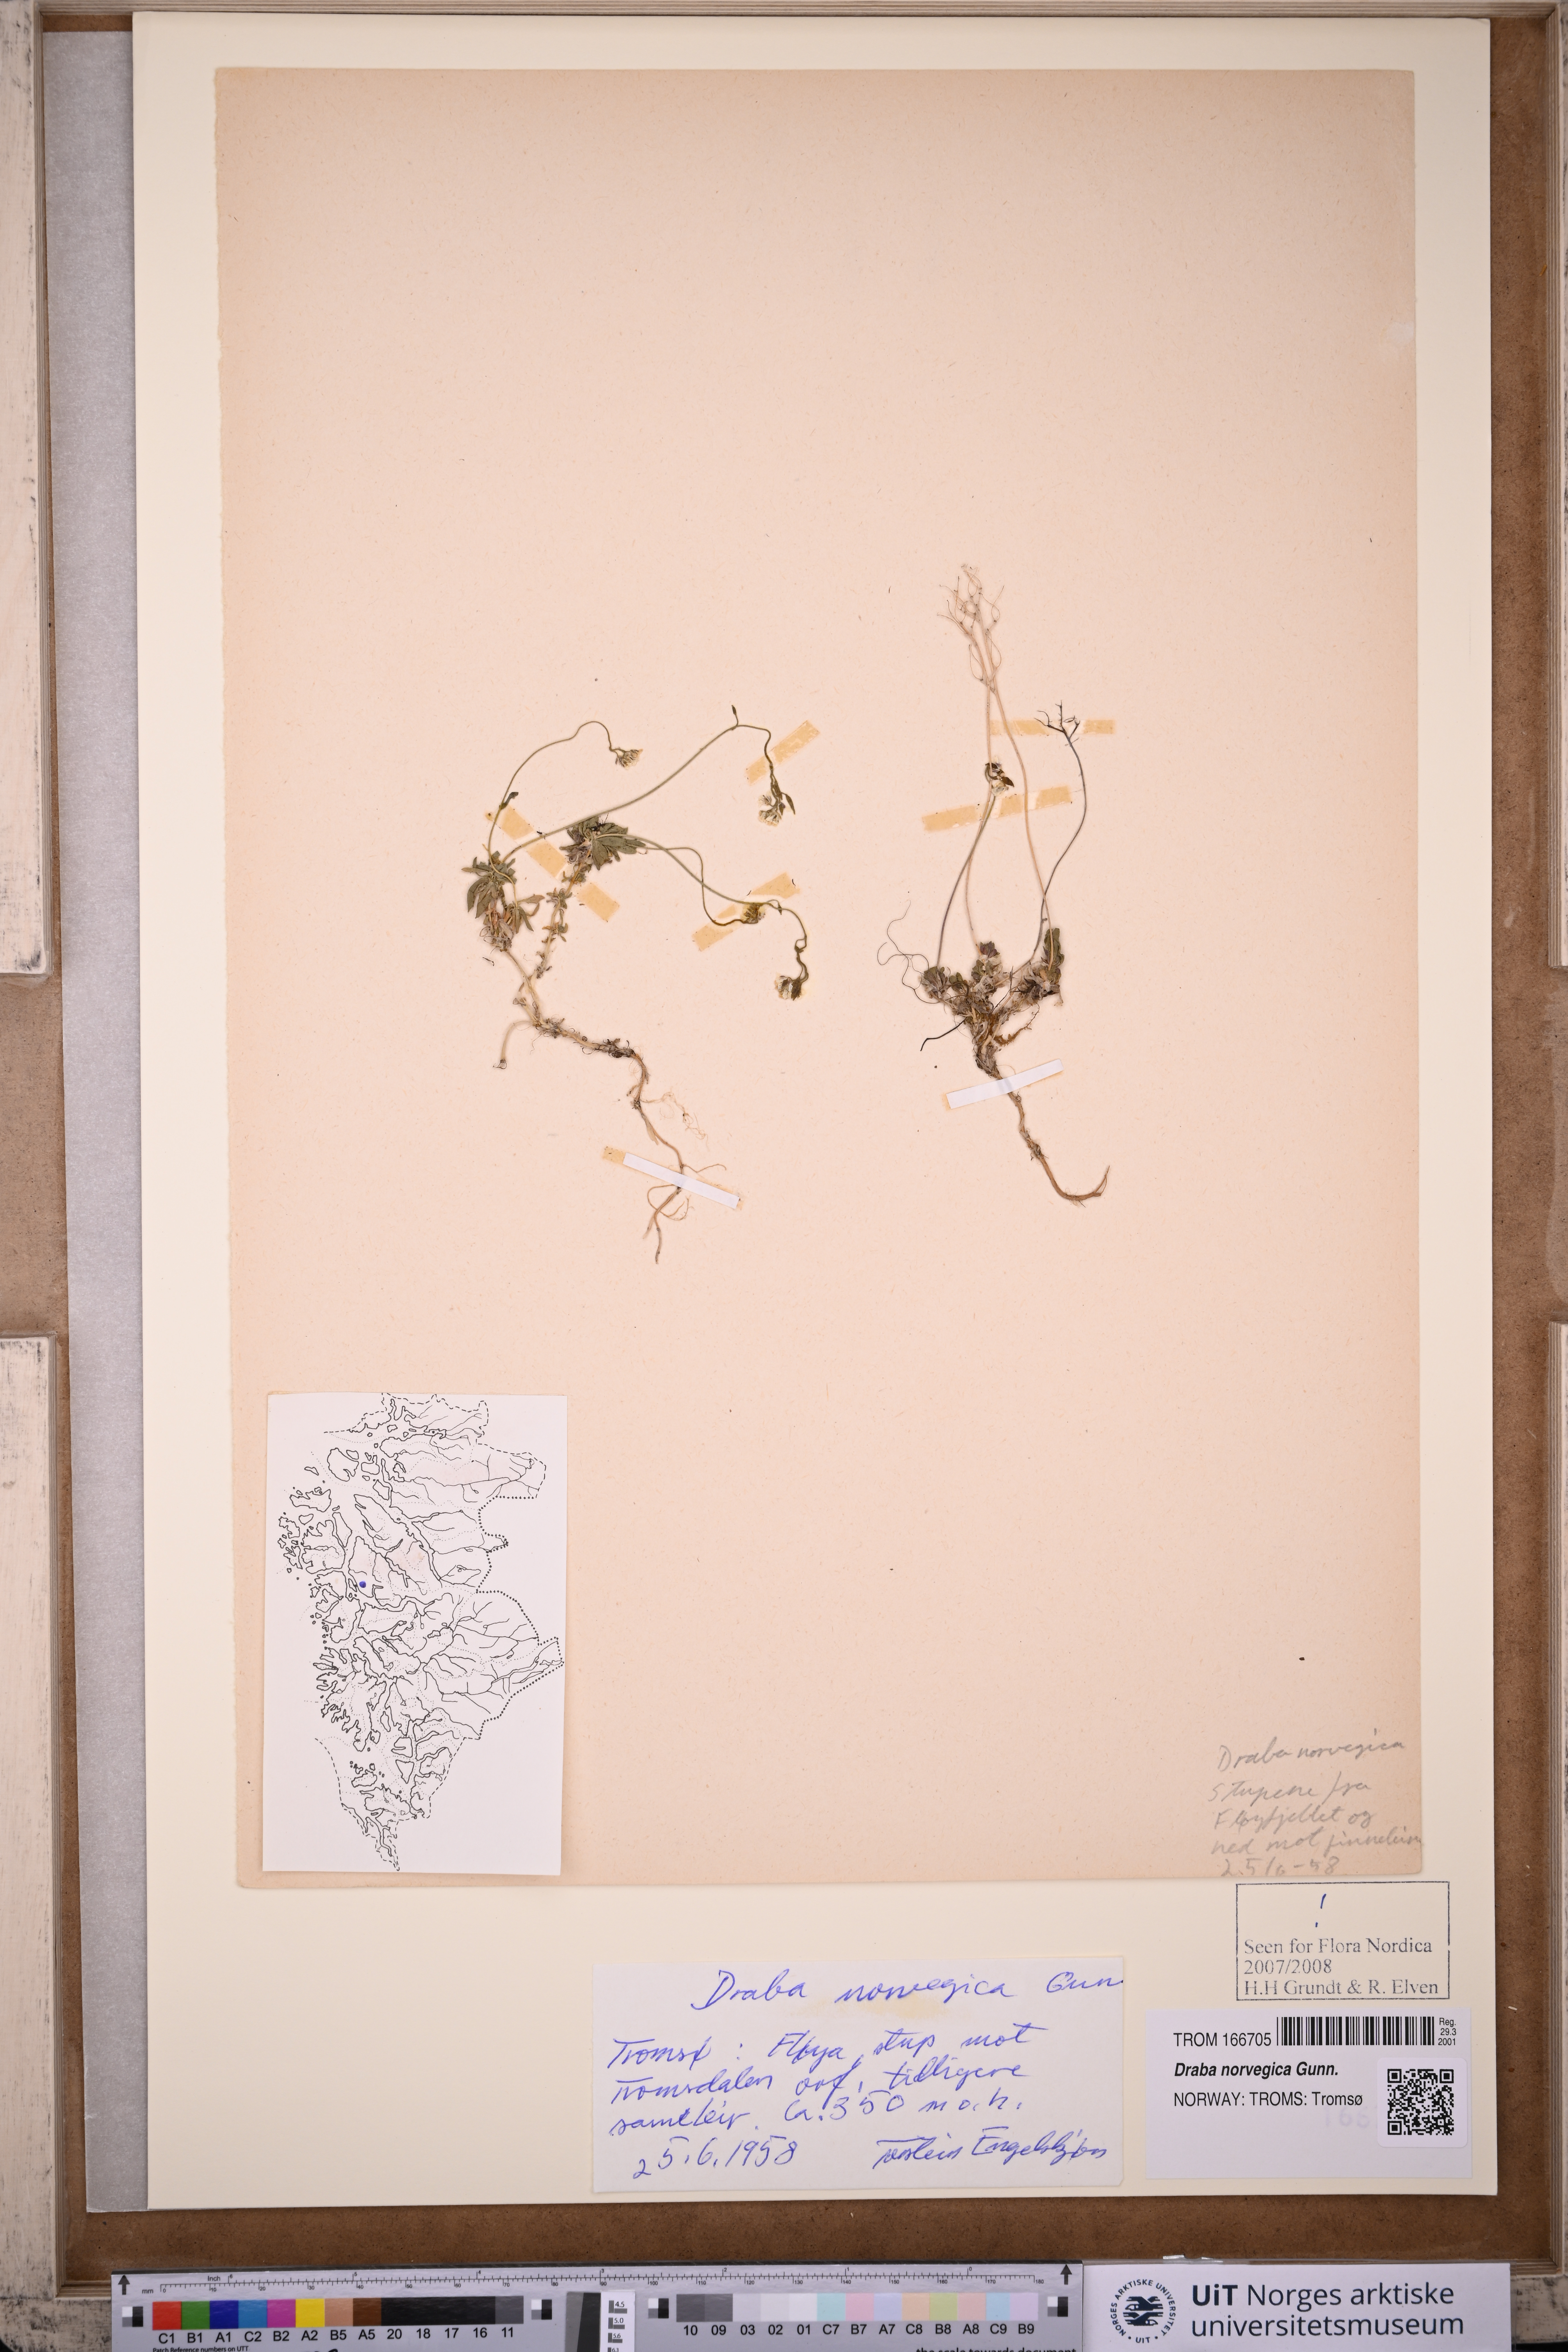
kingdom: Plantae
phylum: Tracheophyta
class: Magnoliopsida
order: Brassicales
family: Brassicaceae
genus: Draba
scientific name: Draba norvegica
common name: Rock whitlowgrass
